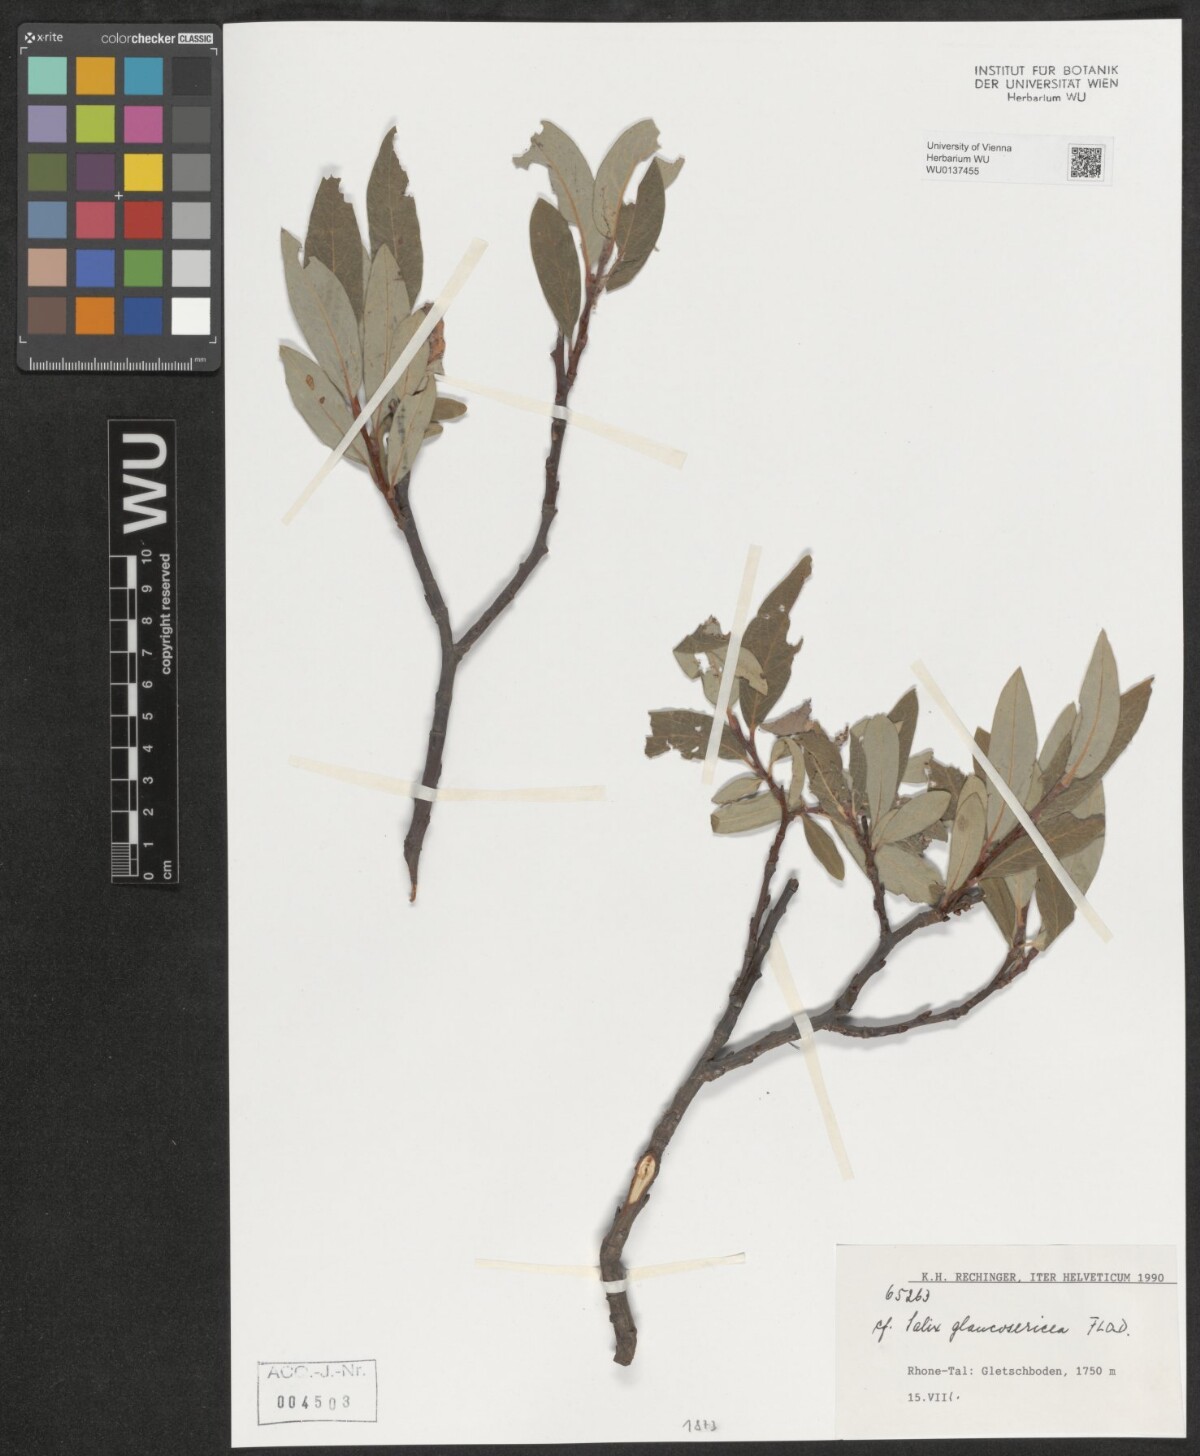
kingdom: Plantae
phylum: Tracheophyta
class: Magnoliopsida
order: Malpighiales
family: Salicaceae
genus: Salix
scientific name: Salix glaucosericea
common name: Alpine gray willow
